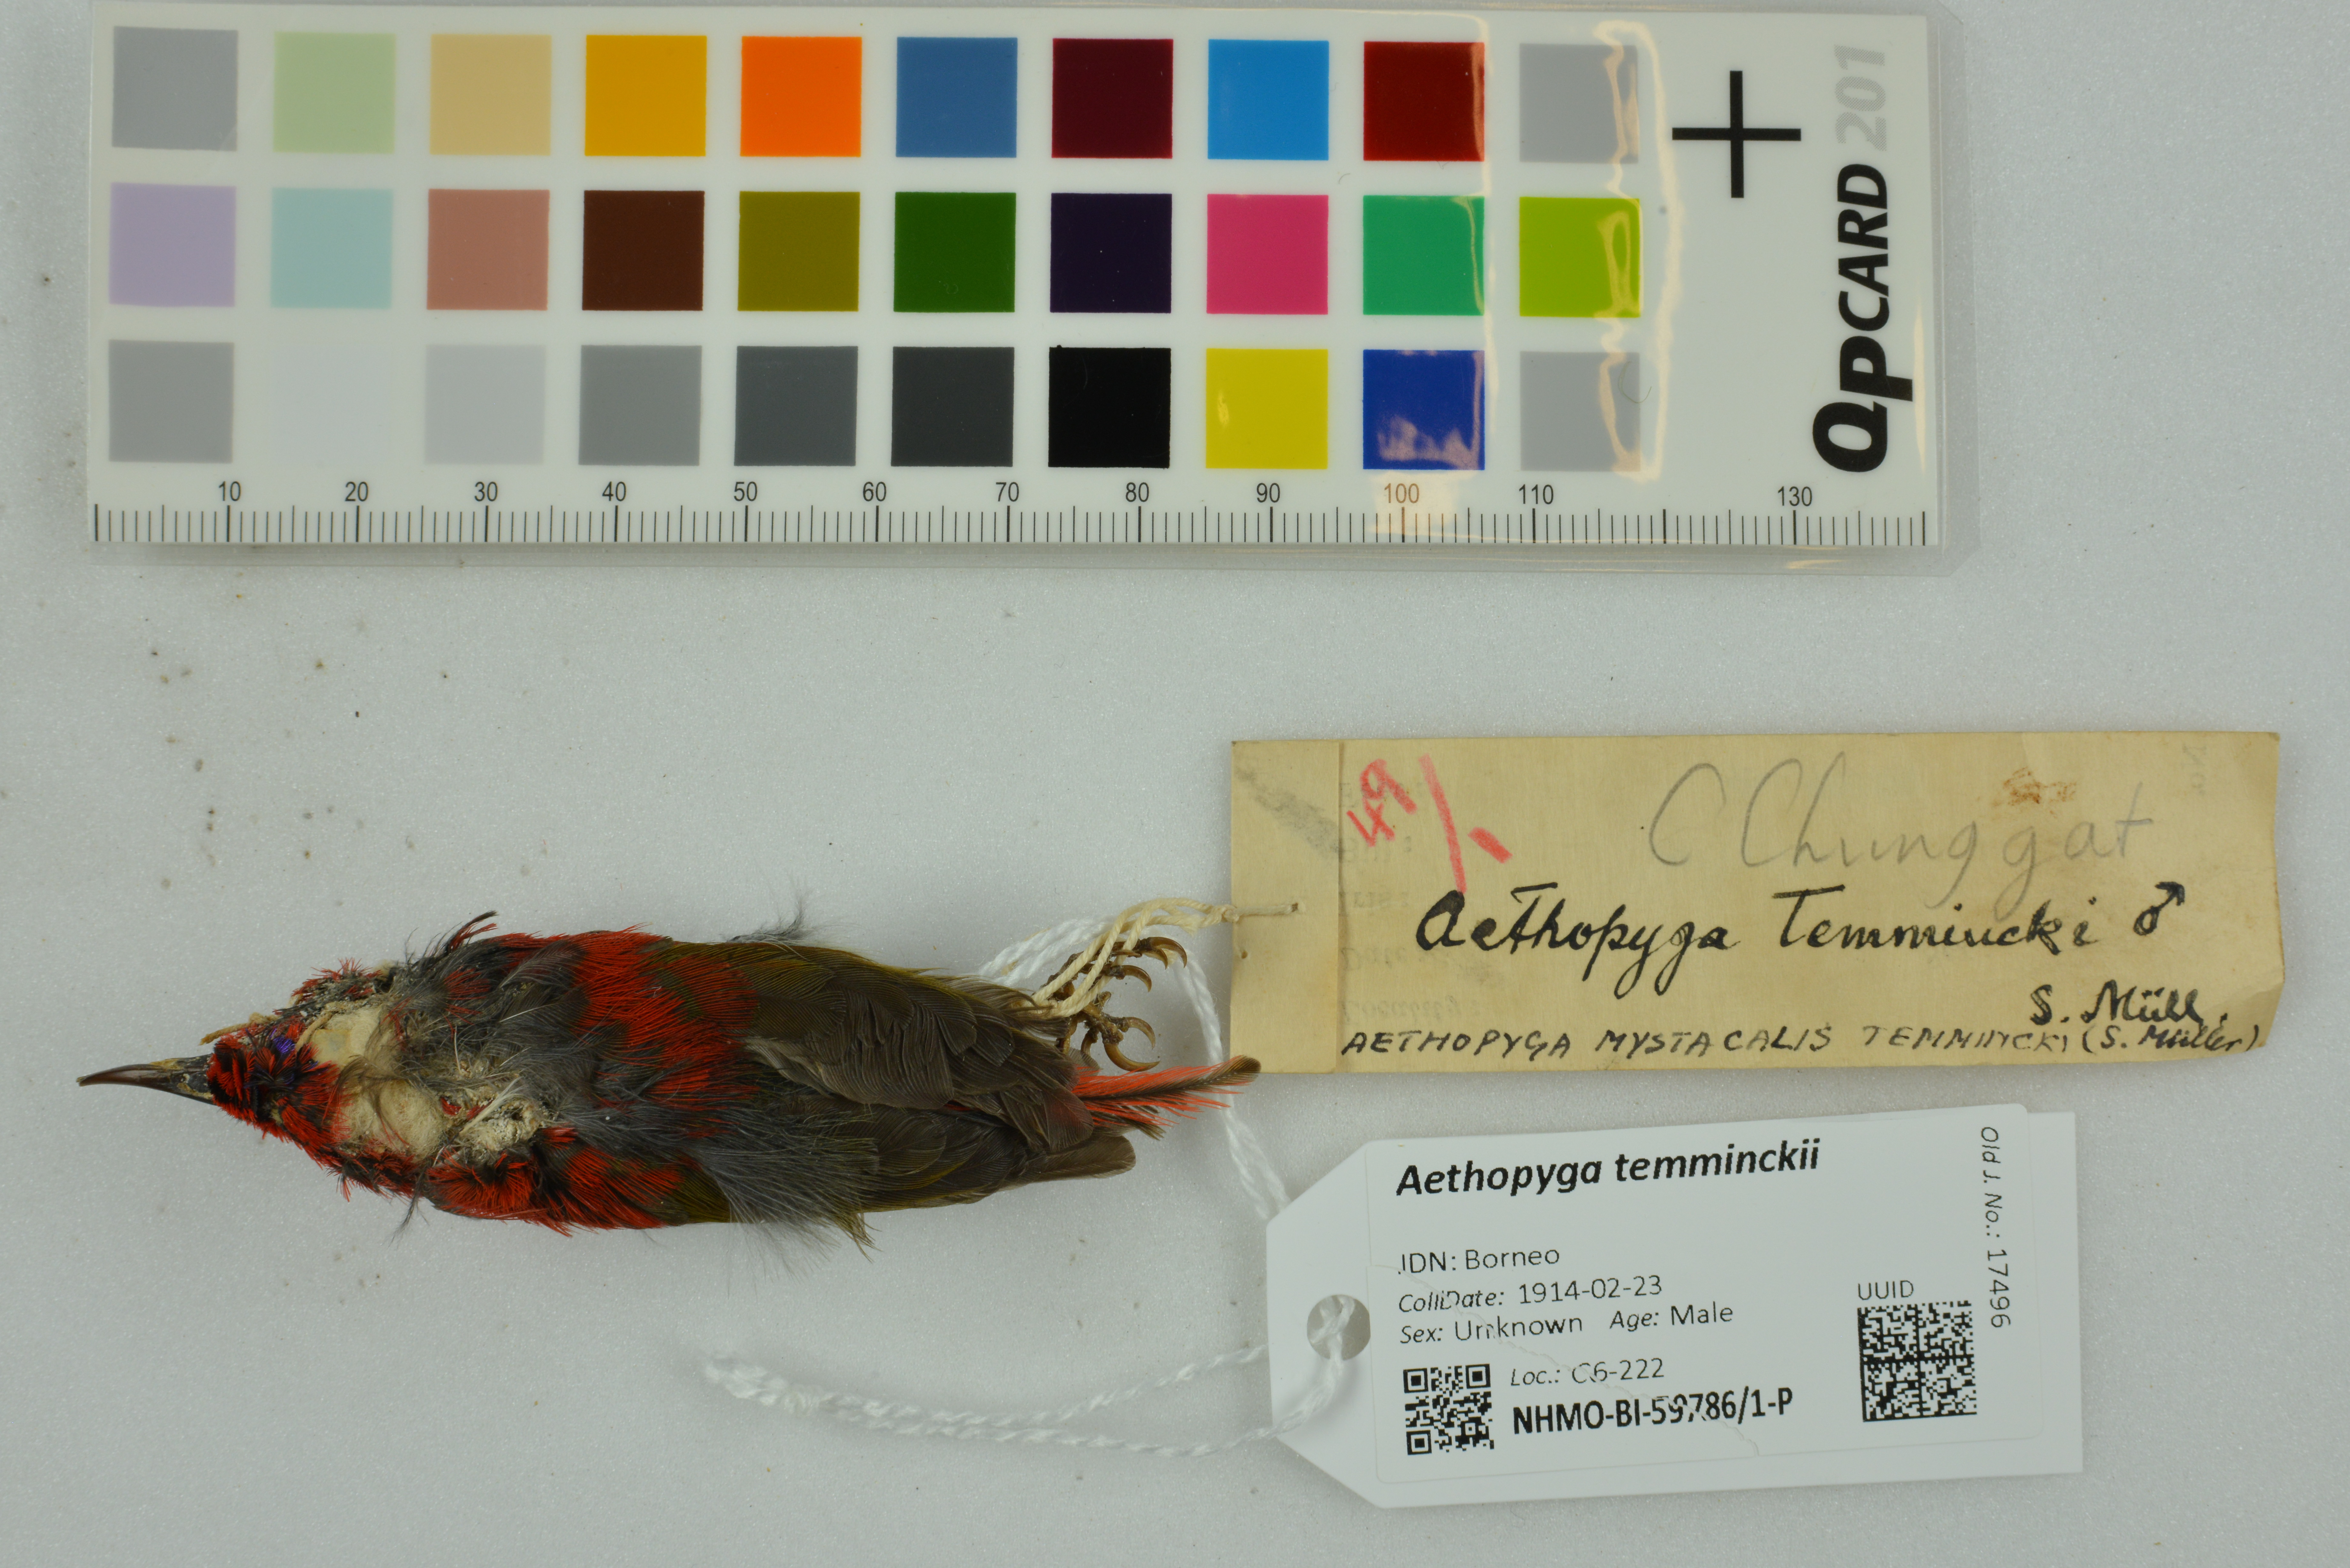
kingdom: Animalia
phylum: Chordata
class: Aves
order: Passeriformes
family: Nectariniidae
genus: Aethopyga
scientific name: Aethopyga temminckii
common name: Temminck's sunbird
